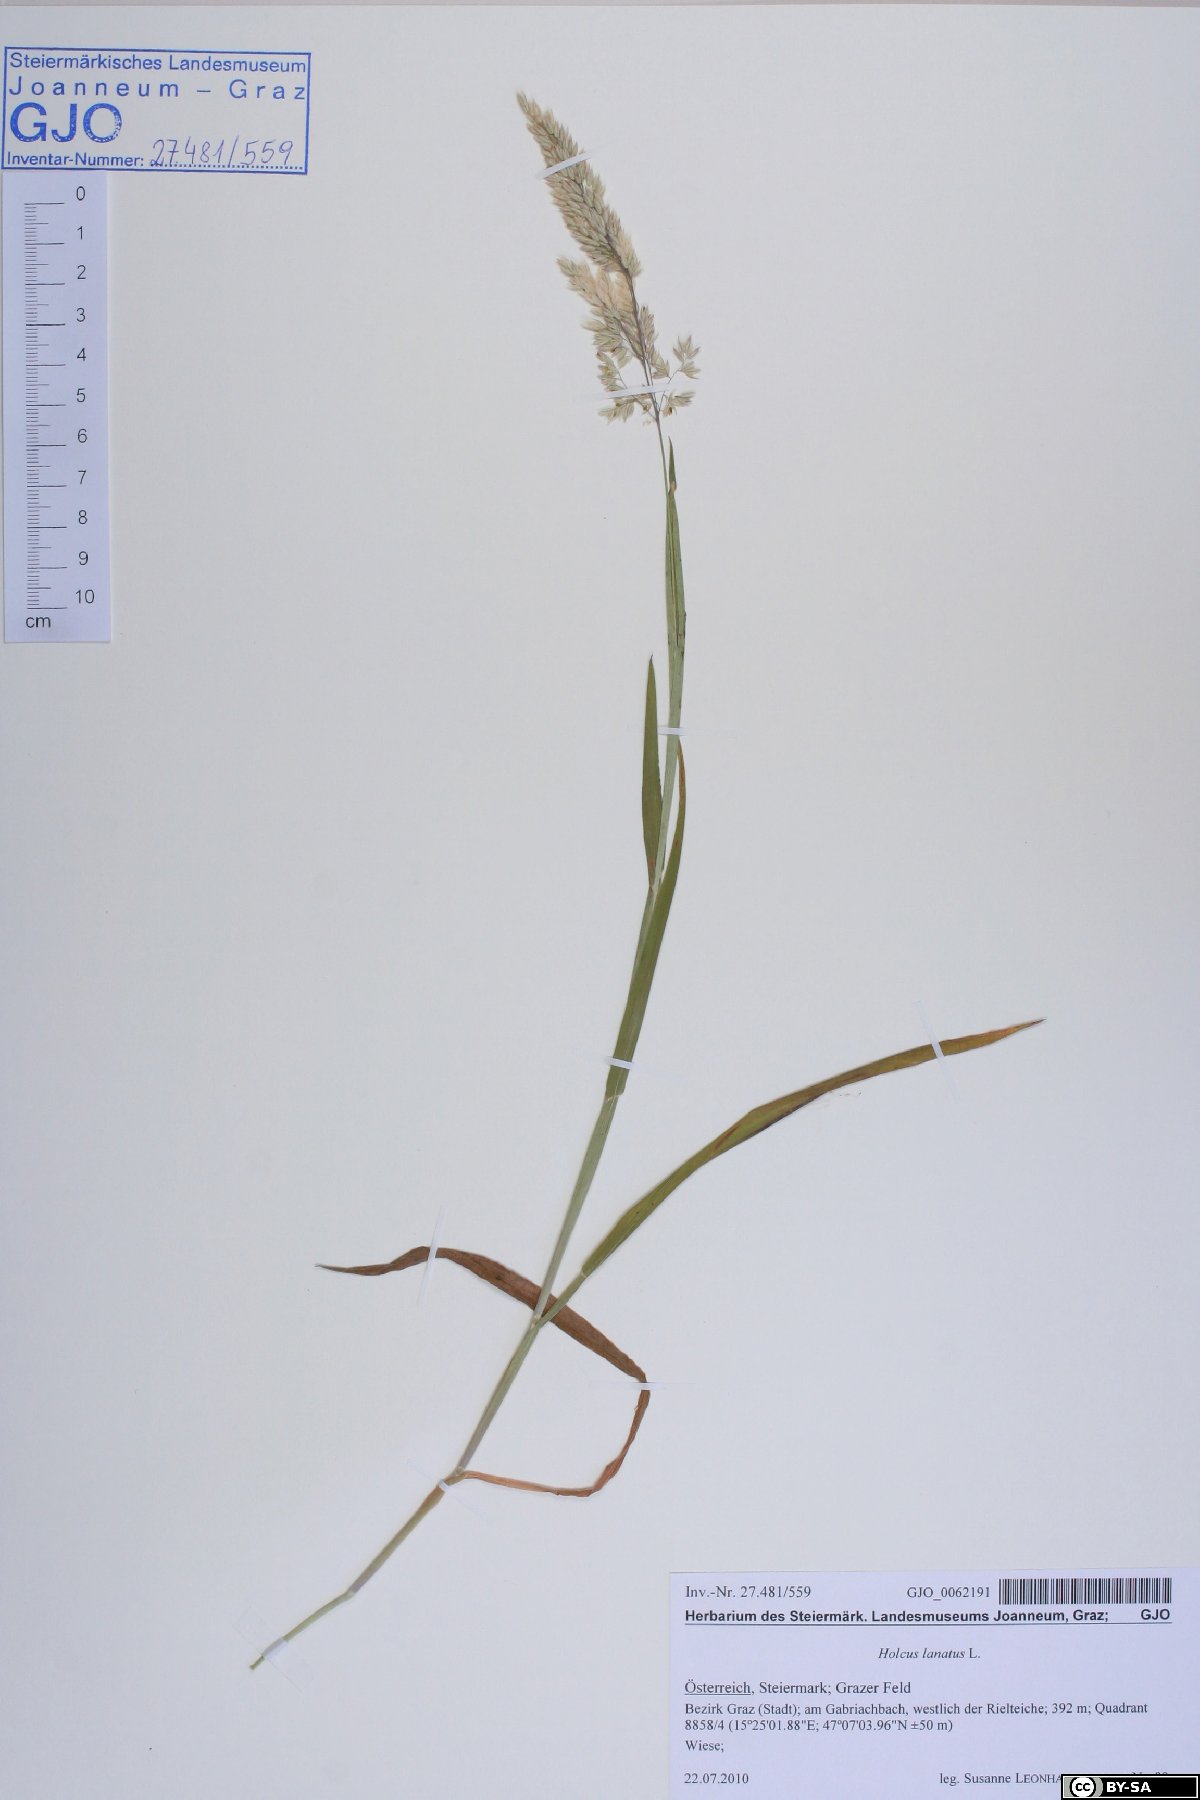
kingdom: Plantae
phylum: Tracheophyta
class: Liliopsida
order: Poales
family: Poaceae
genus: Holcus
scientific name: Holcus lanatus
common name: Yorkshire-fog
